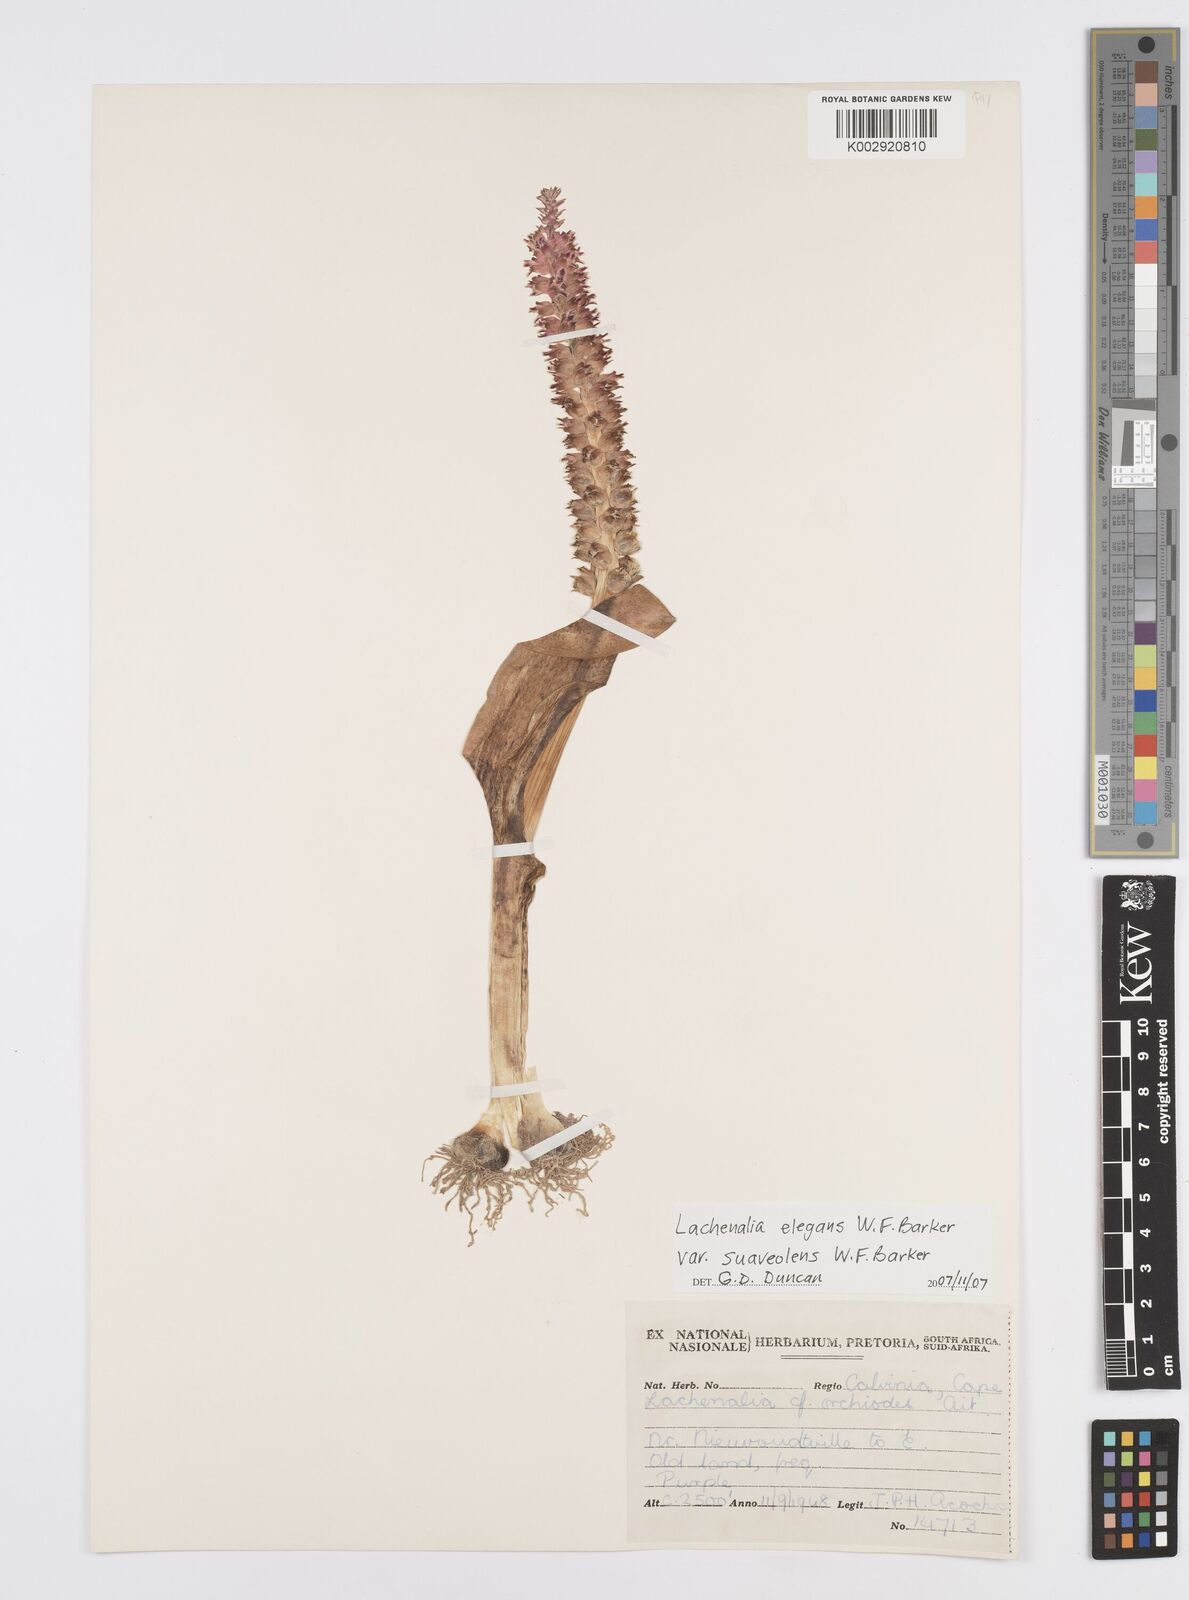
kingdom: Plantae
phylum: Tracheophyta
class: Liliopsida
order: Asparagales
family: Asparagaceae
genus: Lachenalia
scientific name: Lachenalia suaveolens
